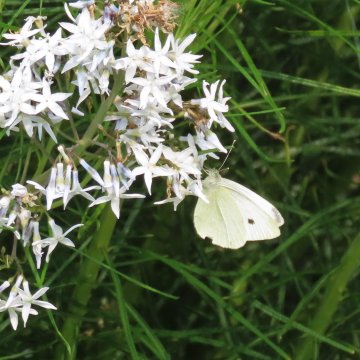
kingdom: Animalia
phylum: Arthropoda
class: Insecta
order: Lepidoptera
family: Pieridae
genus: Pieris
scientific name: Pieris rapae
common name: Cabbage White
